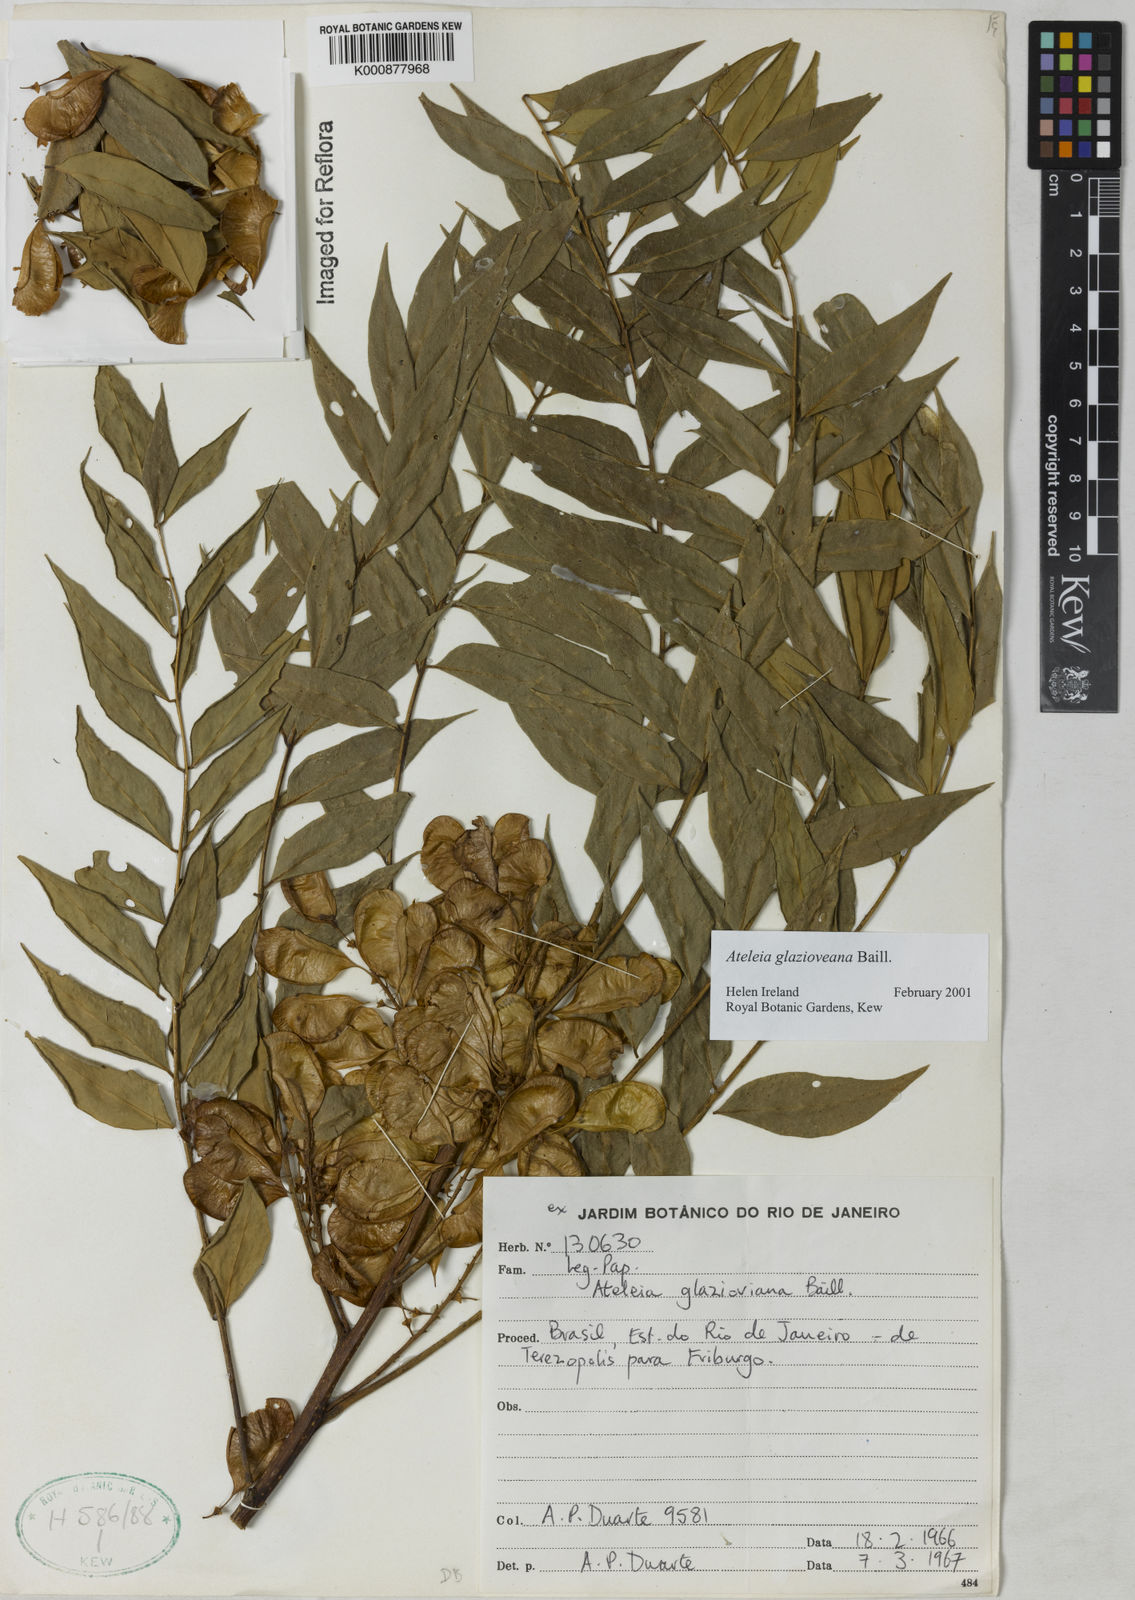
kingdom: Plantae
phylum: Tracheophyta
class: Magnoliopsida
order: Fabales
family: Fabaceae
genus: Ateleia
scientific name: Ateleia glazioveana
